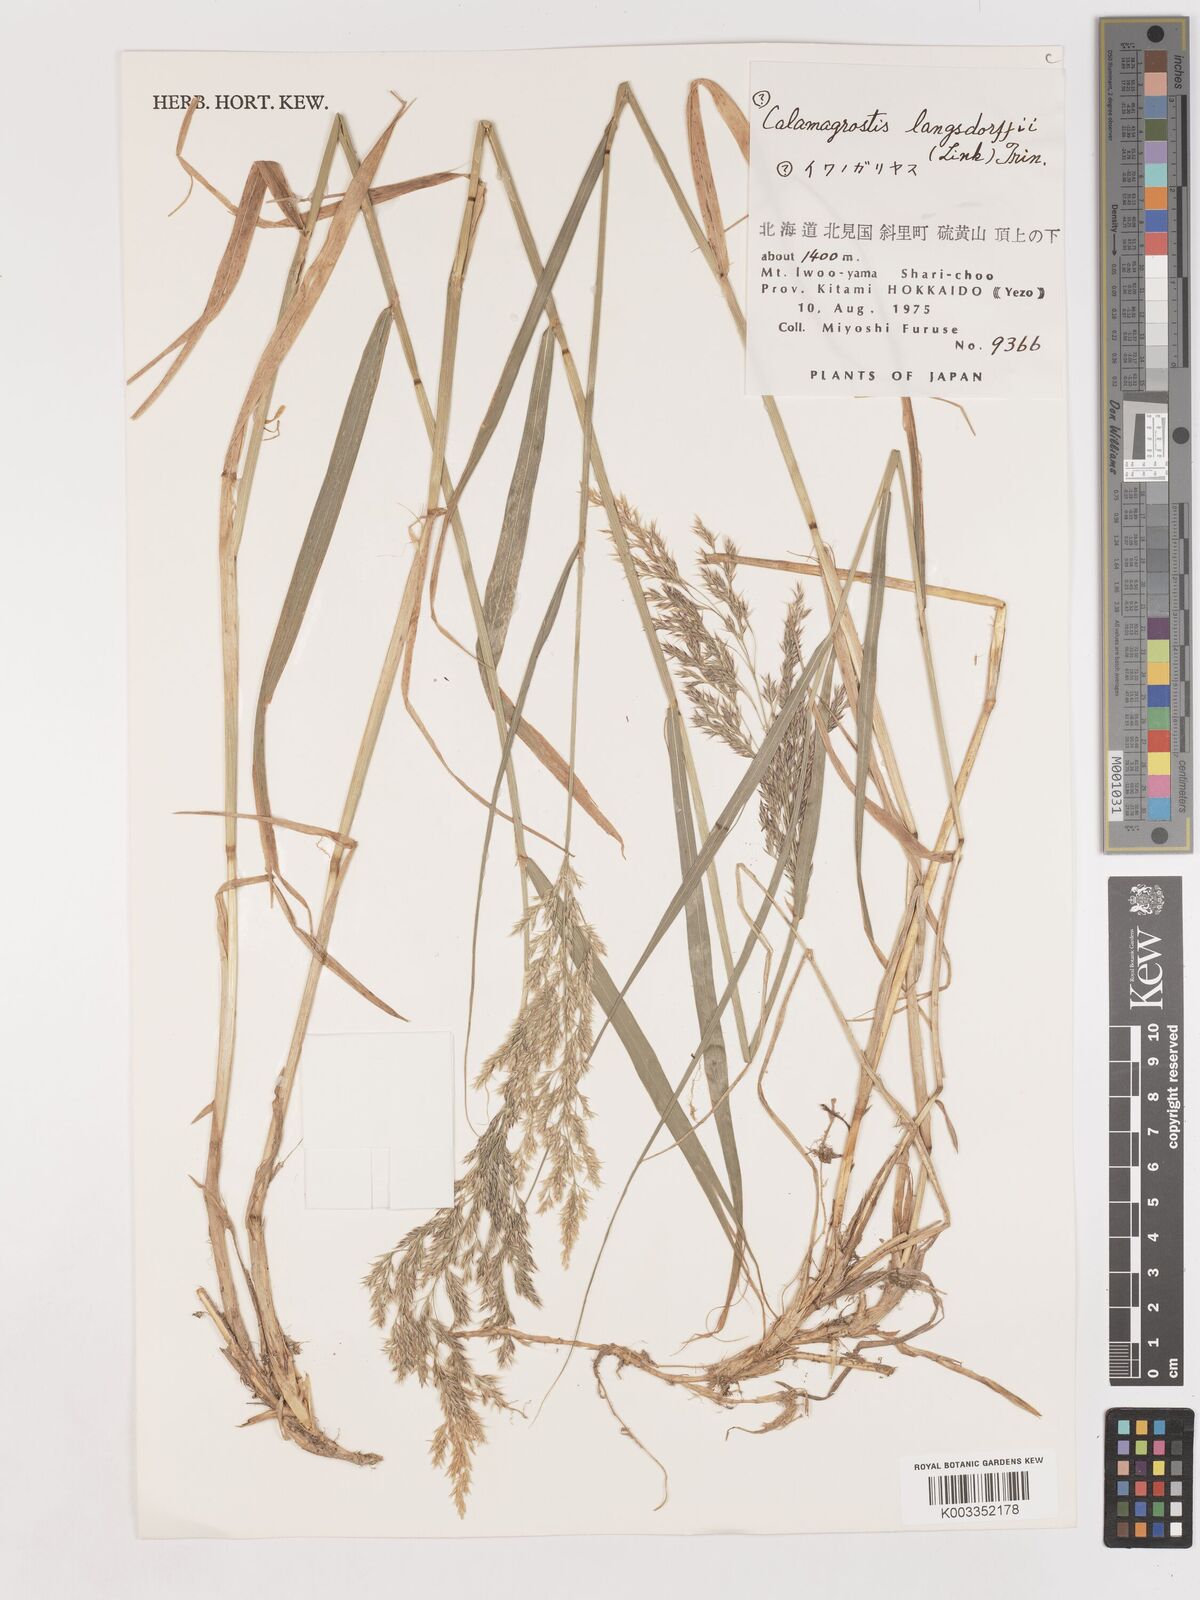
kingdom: Plantae
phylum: Tracheophyta
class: Liliopsida
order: Poales
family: Poaceae
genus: Calamagrostis
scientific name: Calamagrostis purpurea
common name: Scandinavian small-reed
